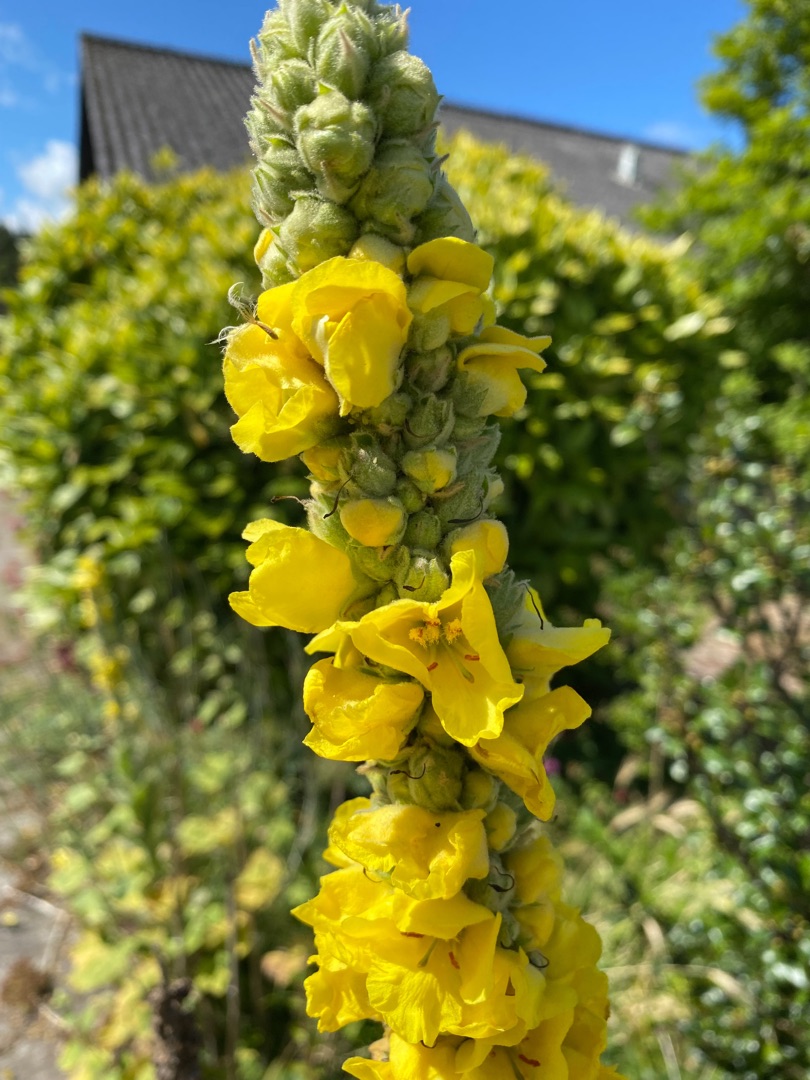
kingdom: Plantae
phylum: Tracheophyta
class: Magnoliopsida
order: Lamiales
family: Scrophulariaceae
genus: Verbascum
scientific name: Verbascum densiflorum
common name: Uldbladet kongelys
